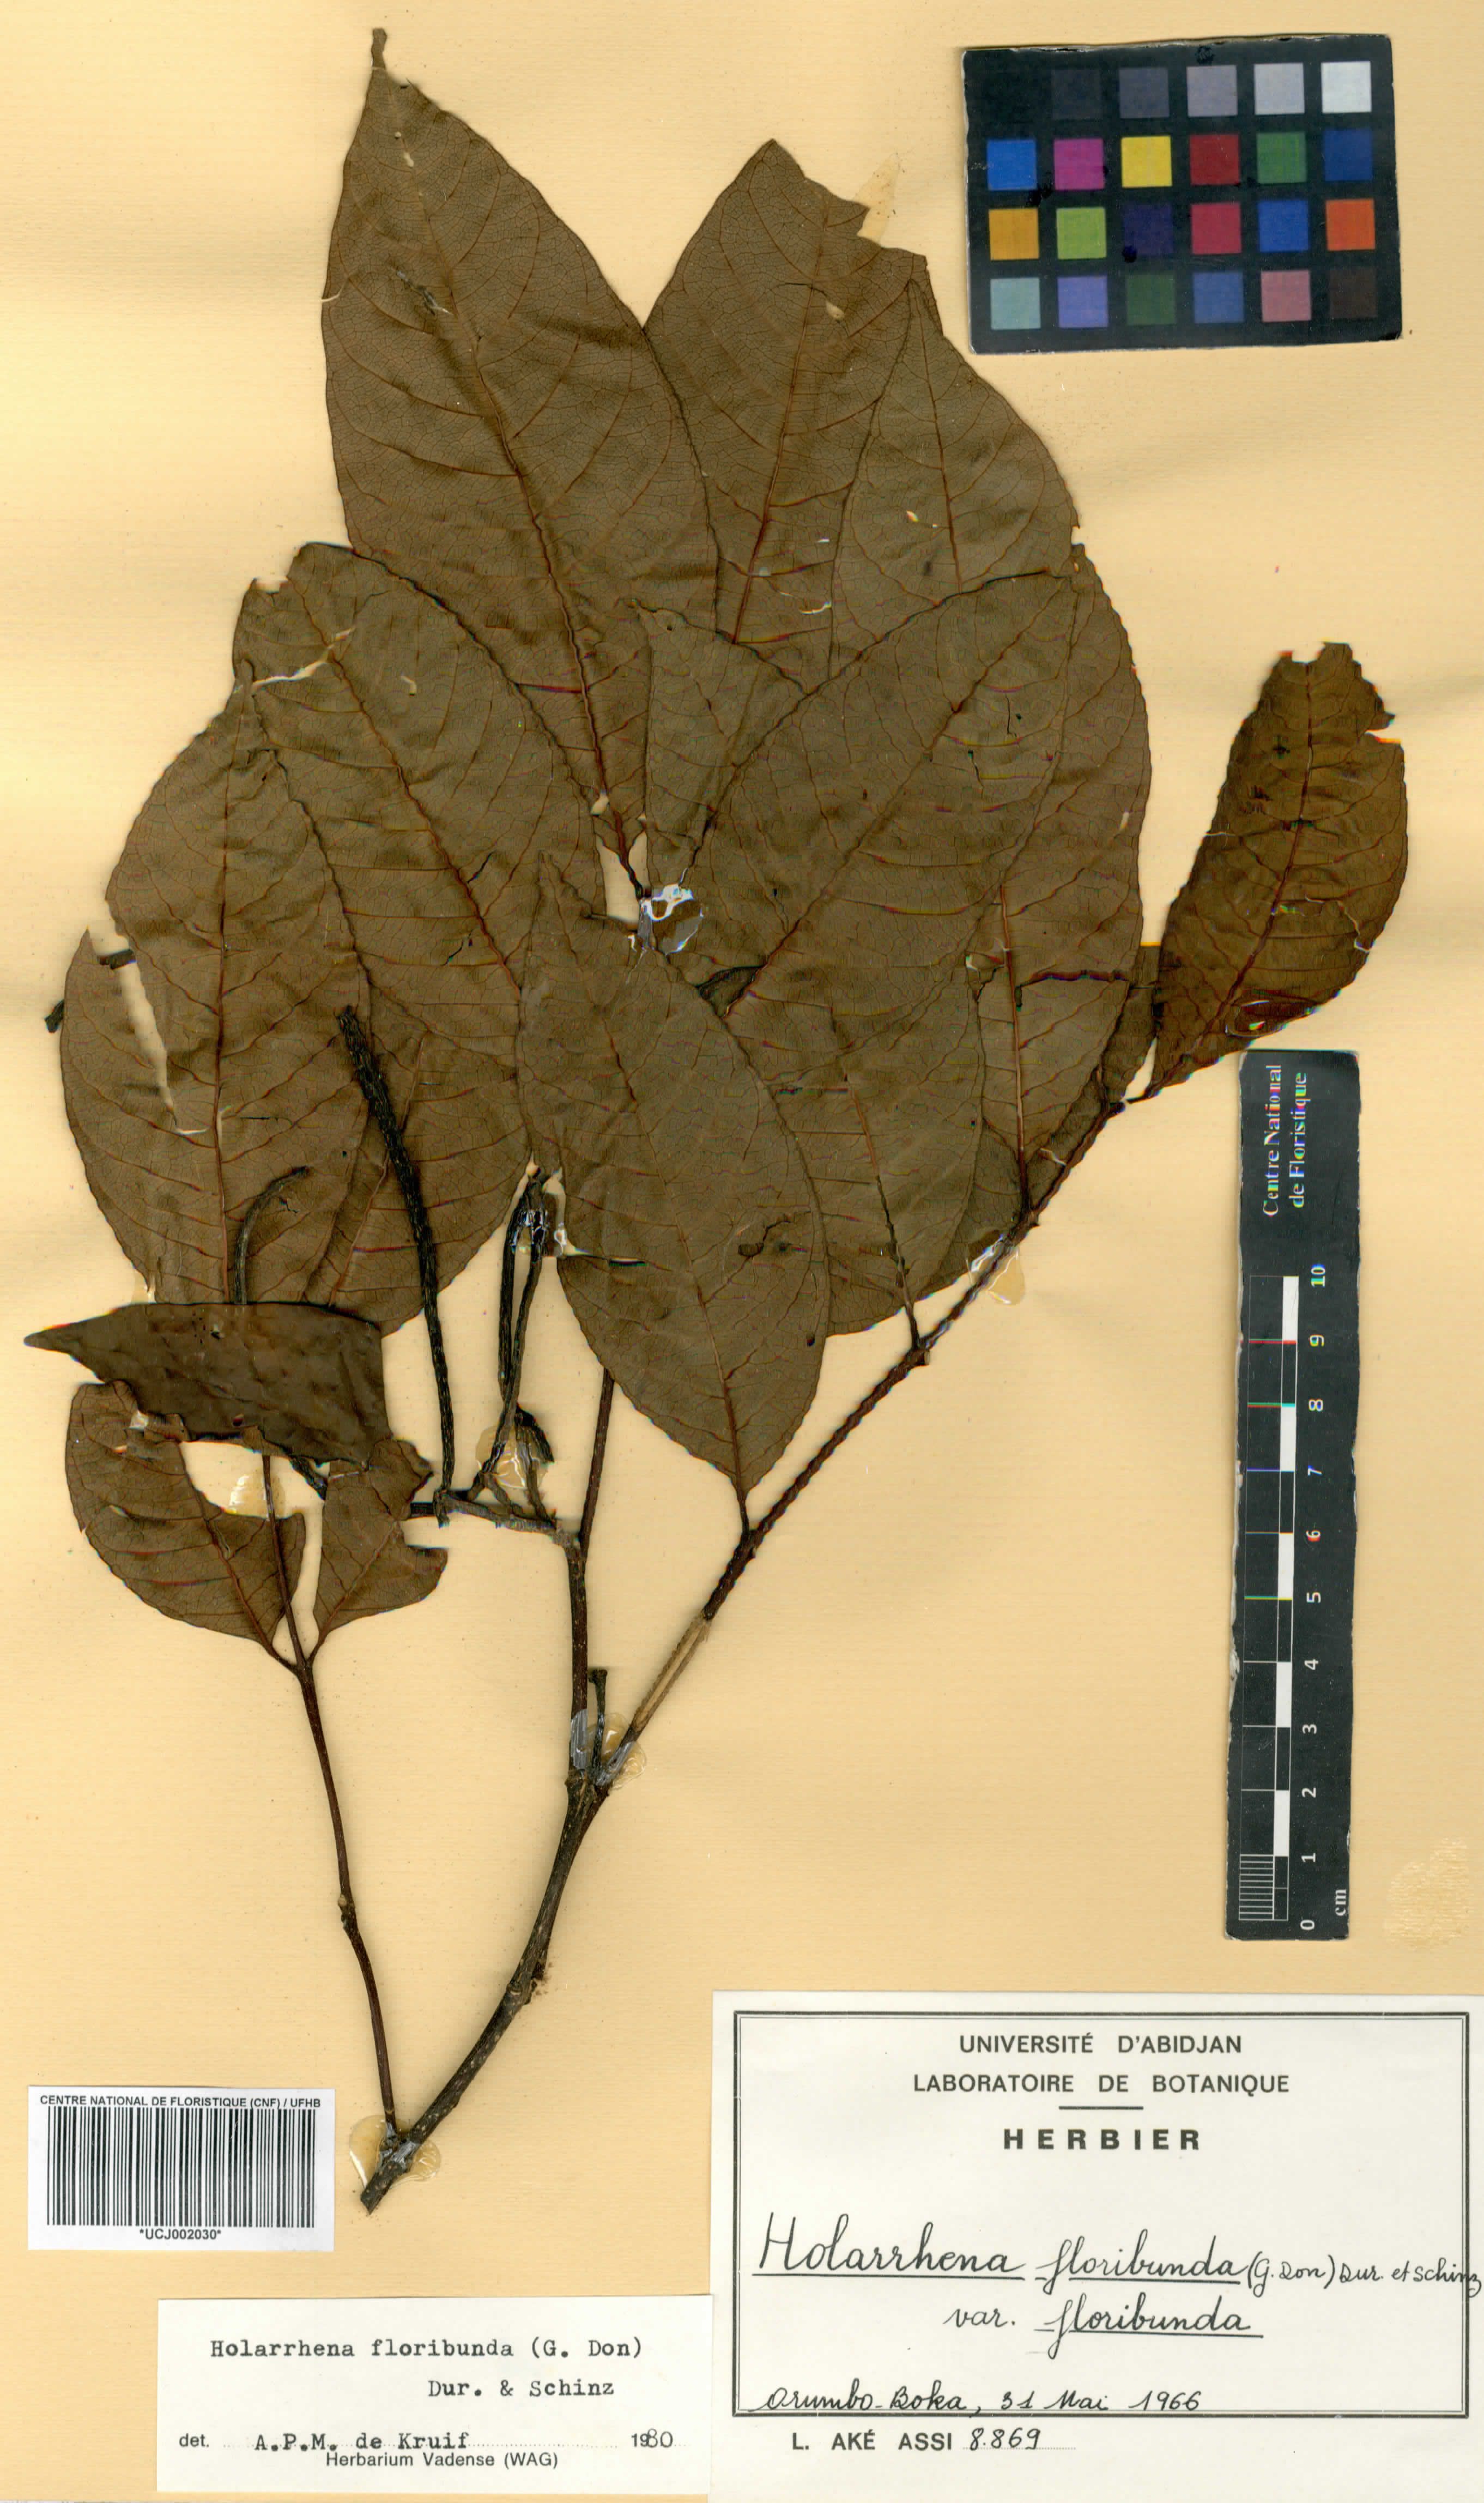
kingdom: Plantae
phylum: Tracheophyta
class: Magnoliopsida
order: Gentianales
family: Apocynaceae
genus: Holarrhena
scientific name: Holarrhena floribunda
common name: Kurchibark
